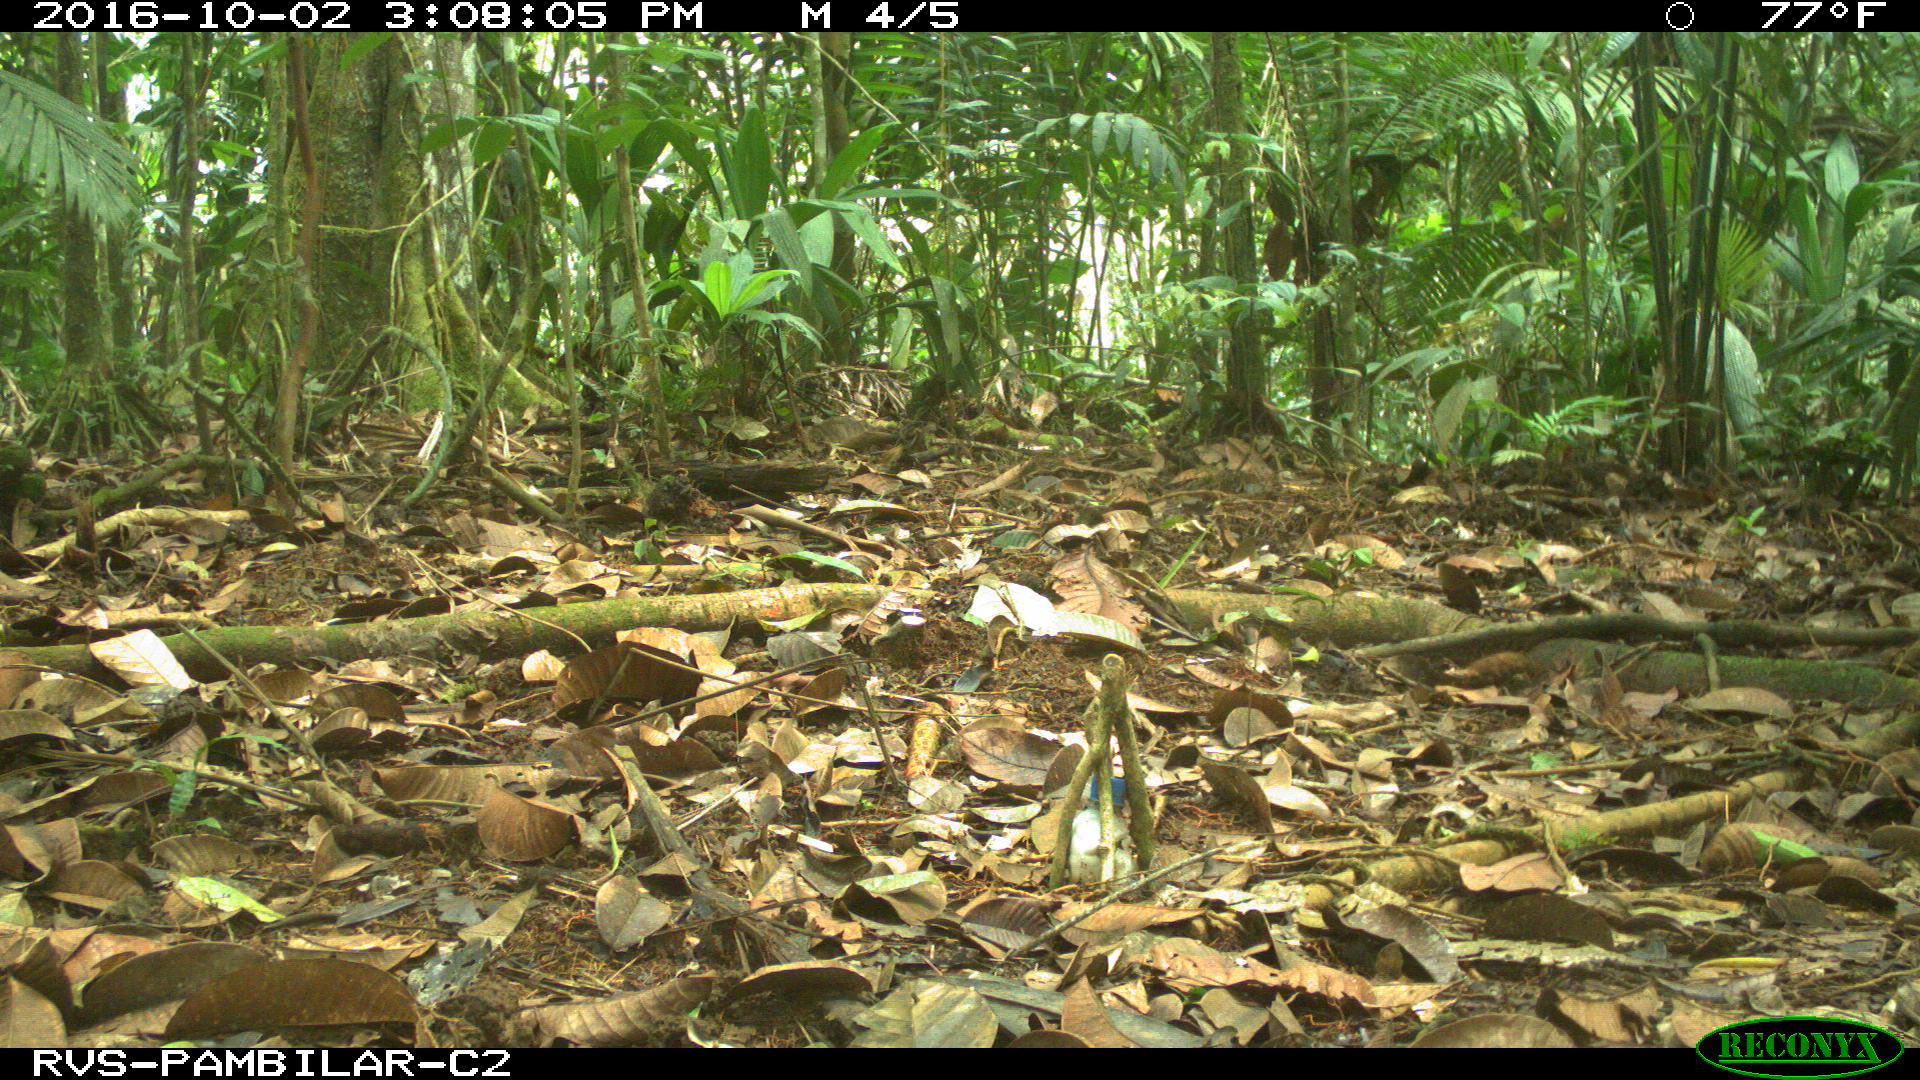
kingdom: Animalia
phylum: Chordata
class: Mammalia
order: Rodentia
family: Dasyproctidae
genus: Dasyprocta
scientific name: Dasyprocta punctata
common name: Central american agouti
